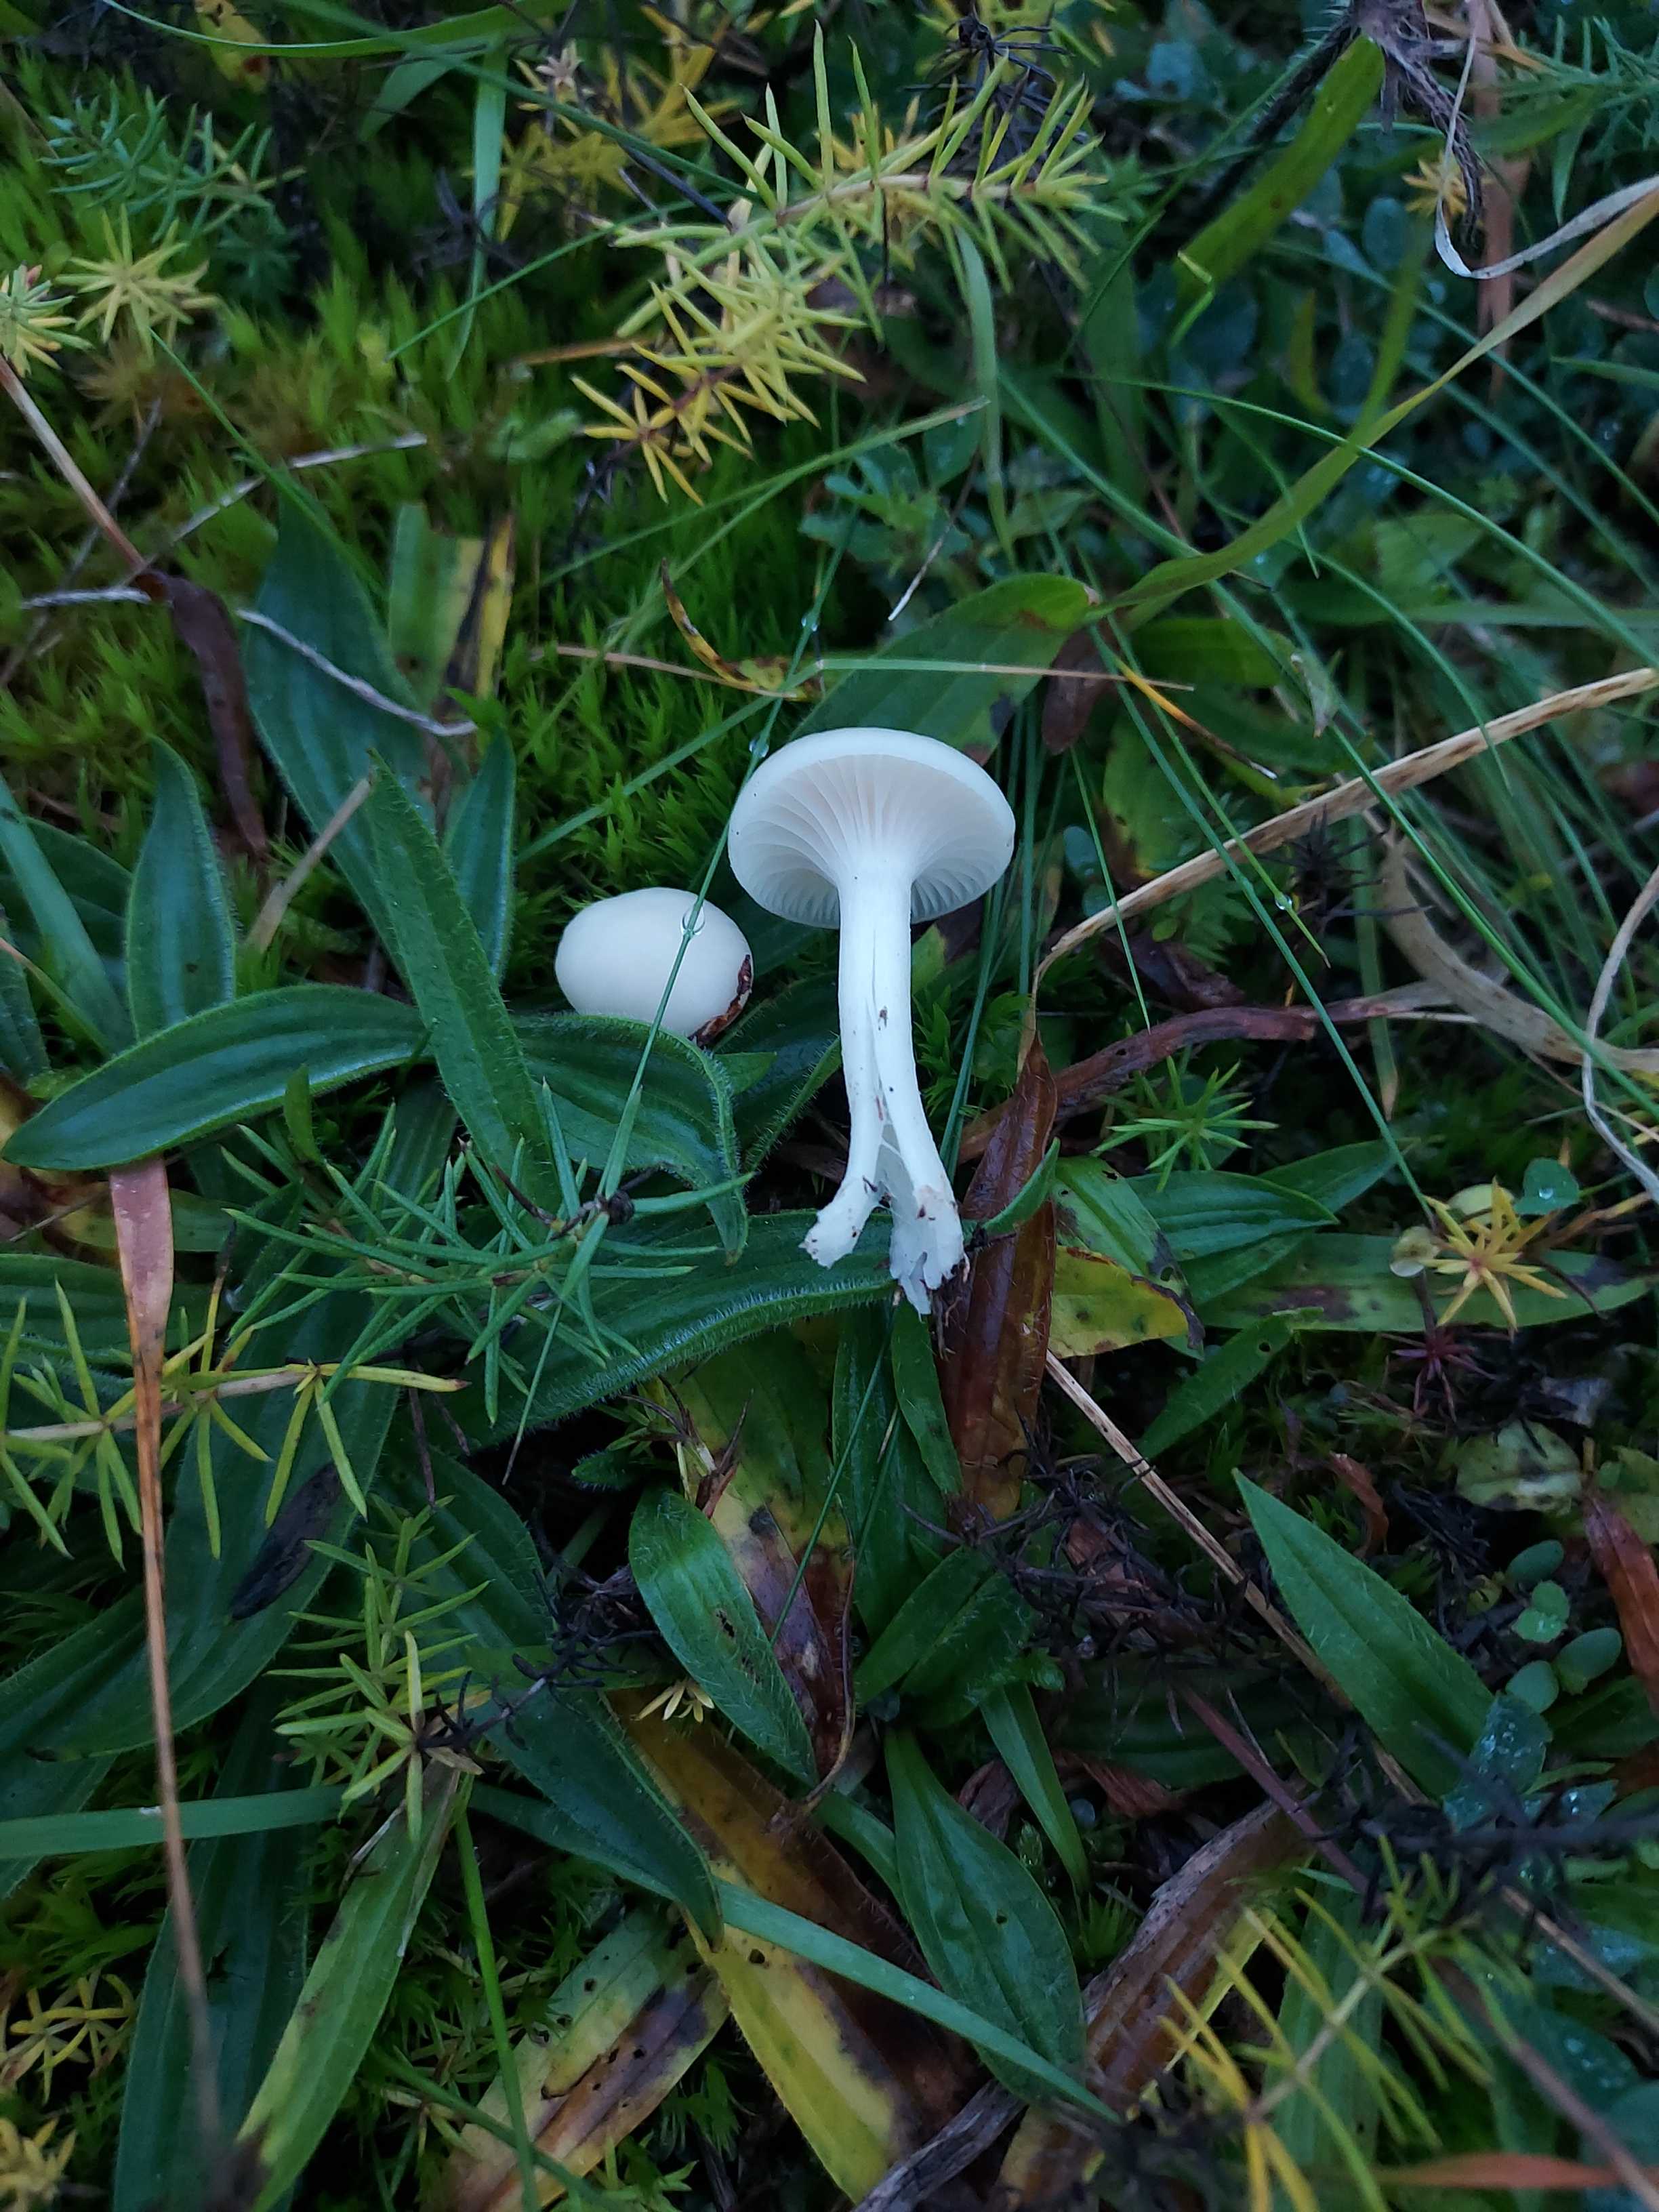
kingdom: Fungi
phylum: Basidiomycota
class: Agaricomycetes
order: Agaricales
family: Hygrophoraceae
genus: Cuphophyllus
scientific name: Cuphophyllus virgineus
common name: snehvid vokshat
